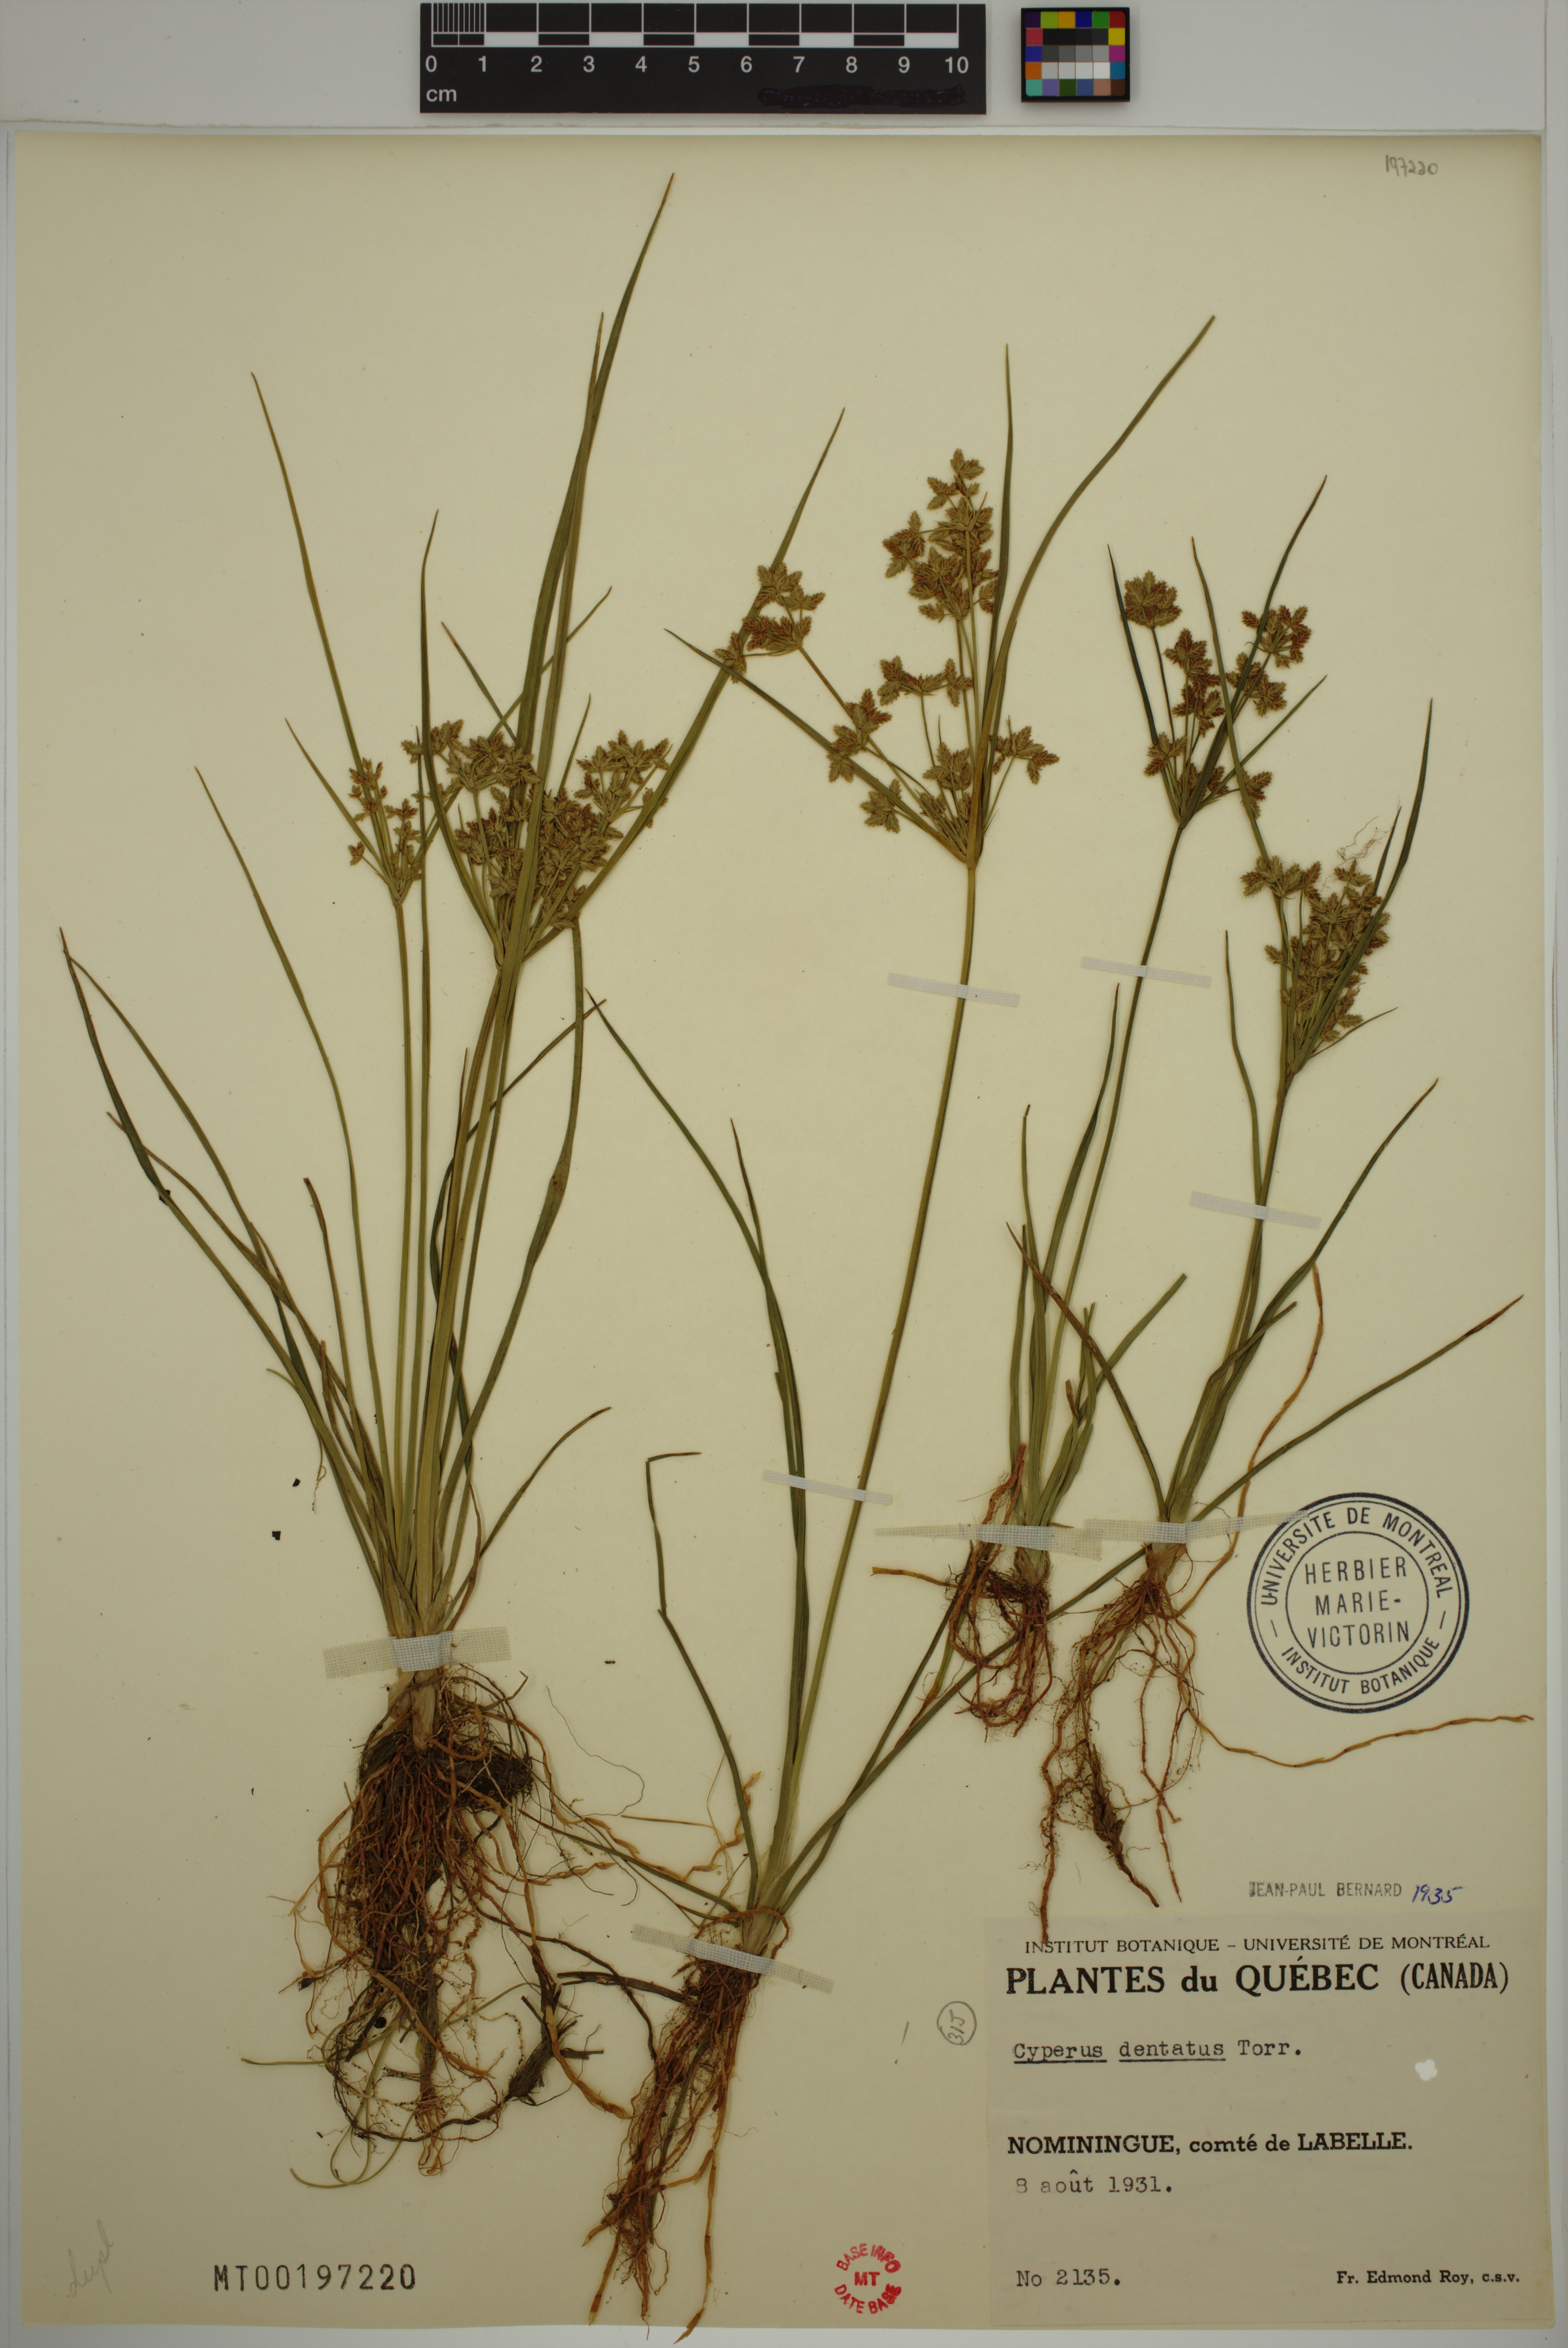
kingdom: Plantae
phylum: Tracheophyta
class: Liliopsida
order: Poales
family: Cyperaceae
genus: Cyperus
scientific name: Cyperus dentatus
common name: Dentate umbrella sedge
